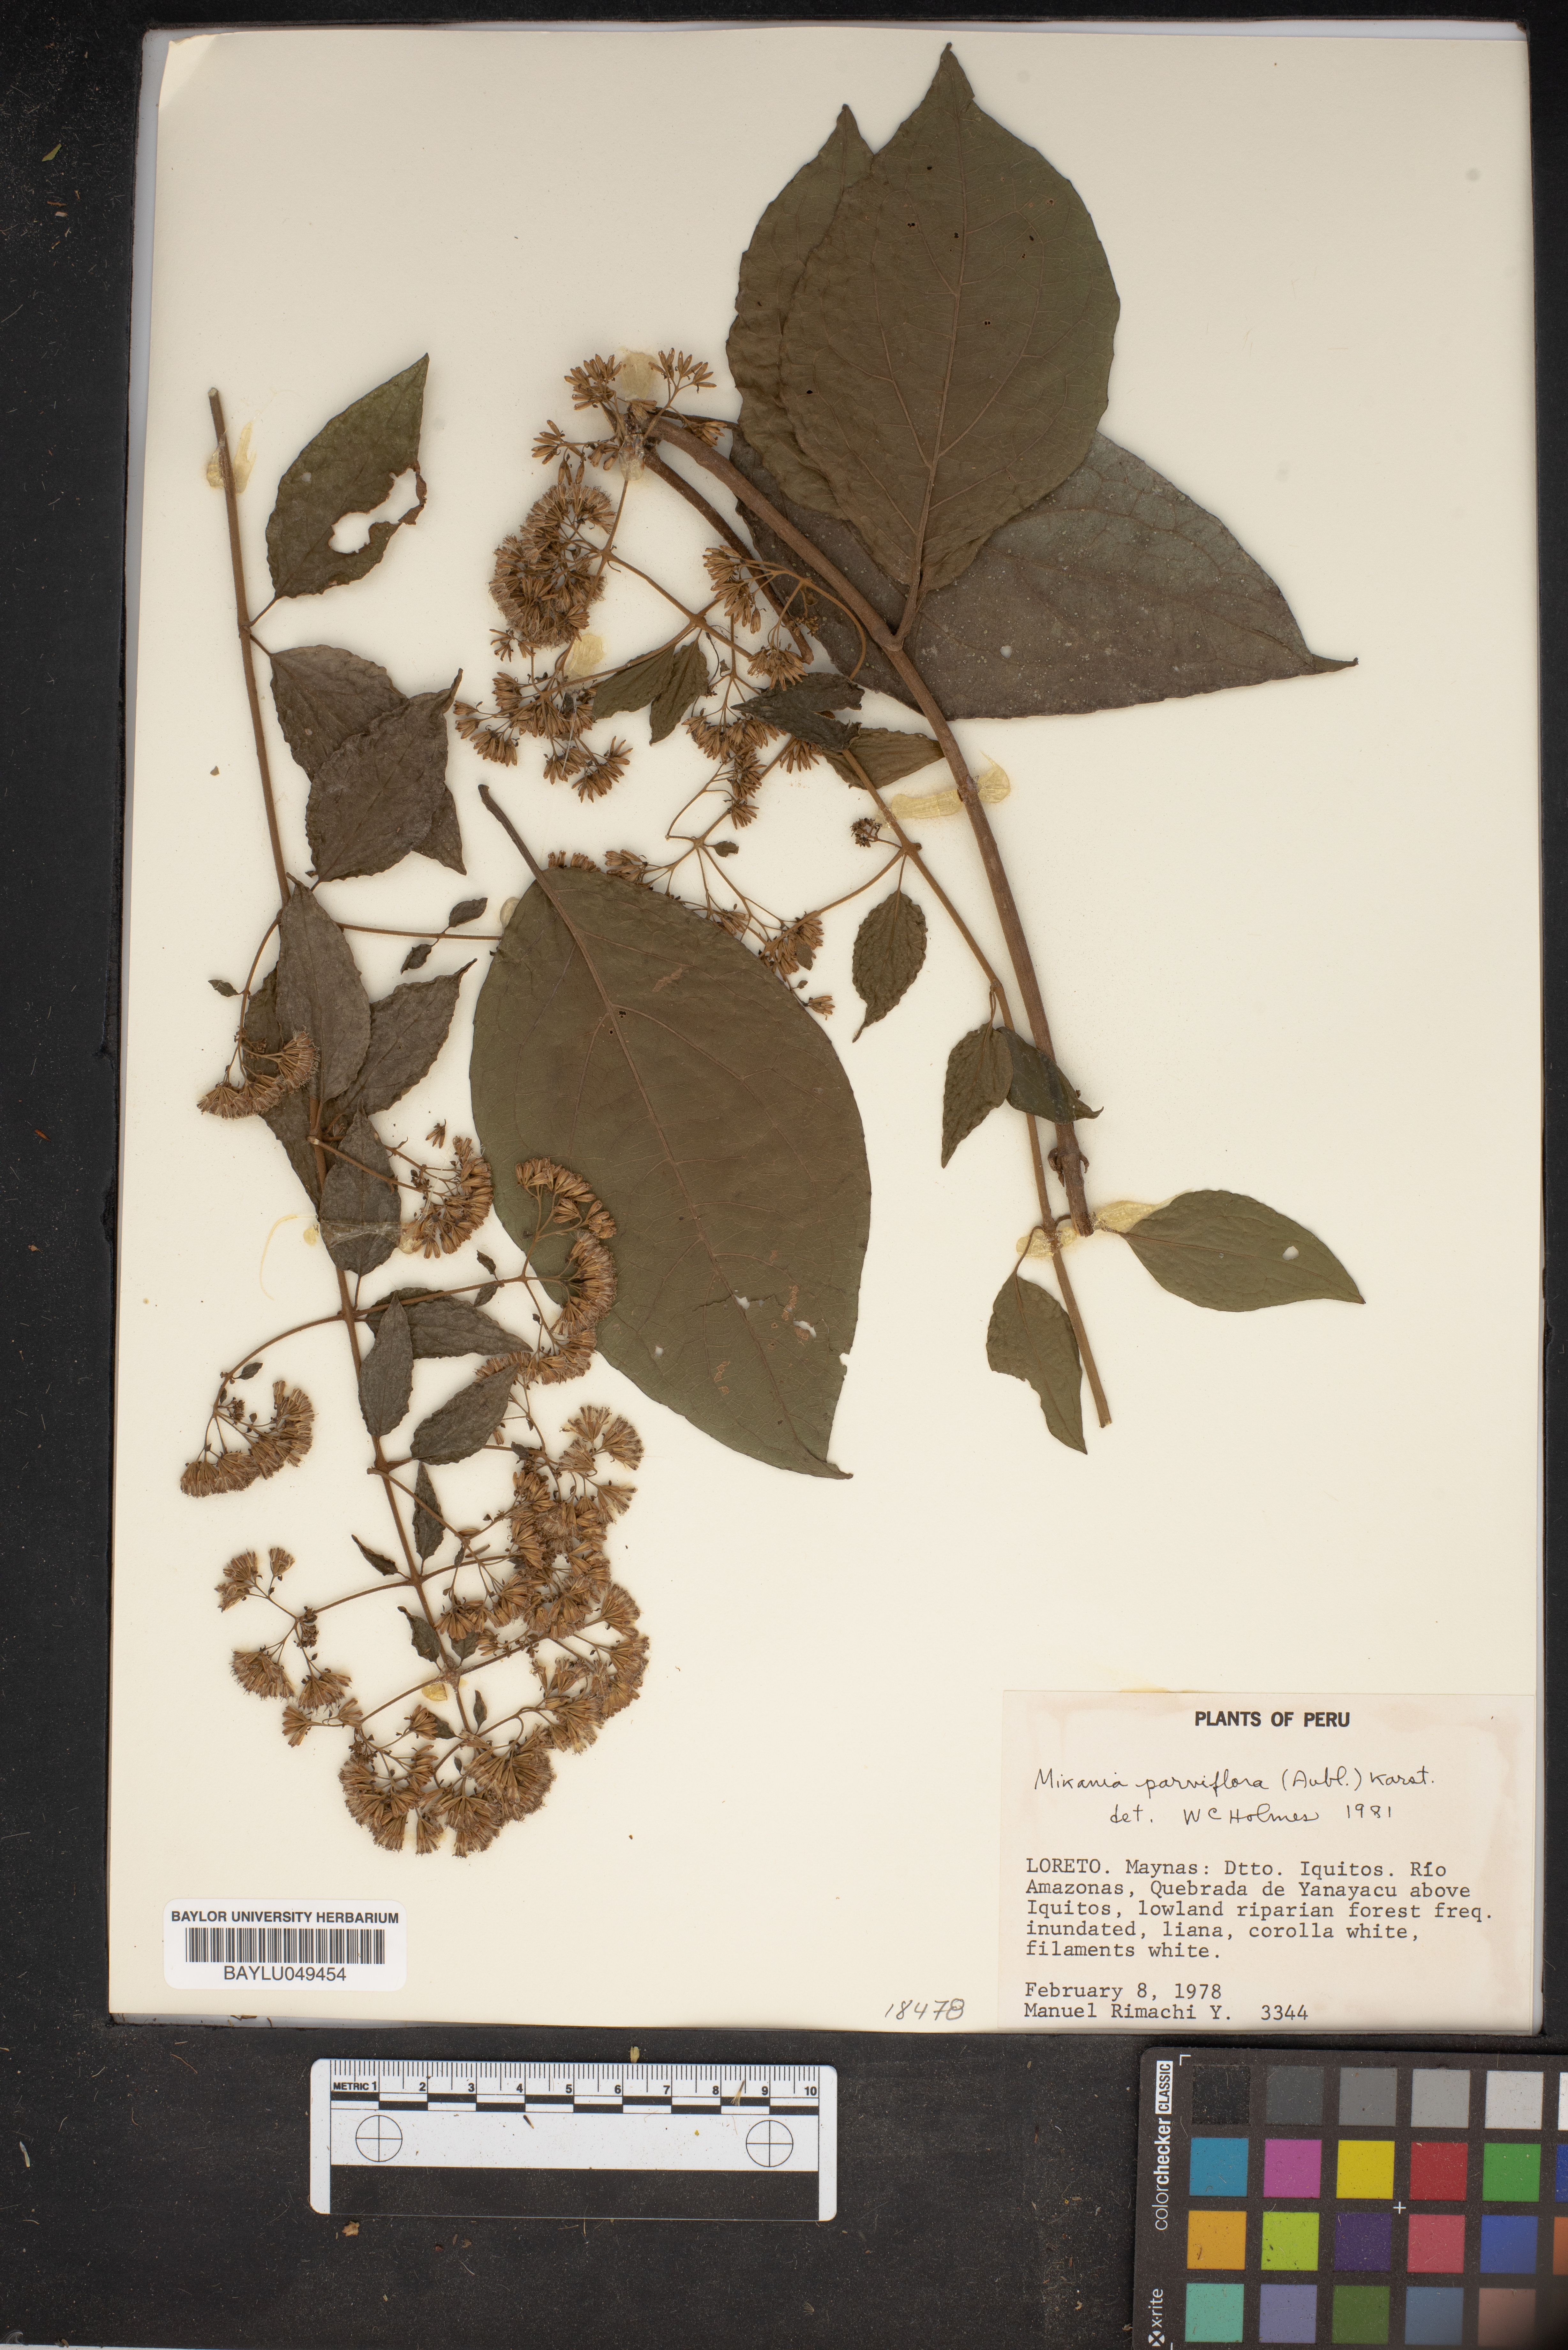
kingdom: Plantae
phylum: Tracheophyta
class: Magnoliopsida
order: Asterales
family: Asteraceae
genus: Mikania
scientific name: Mikania parviflora
